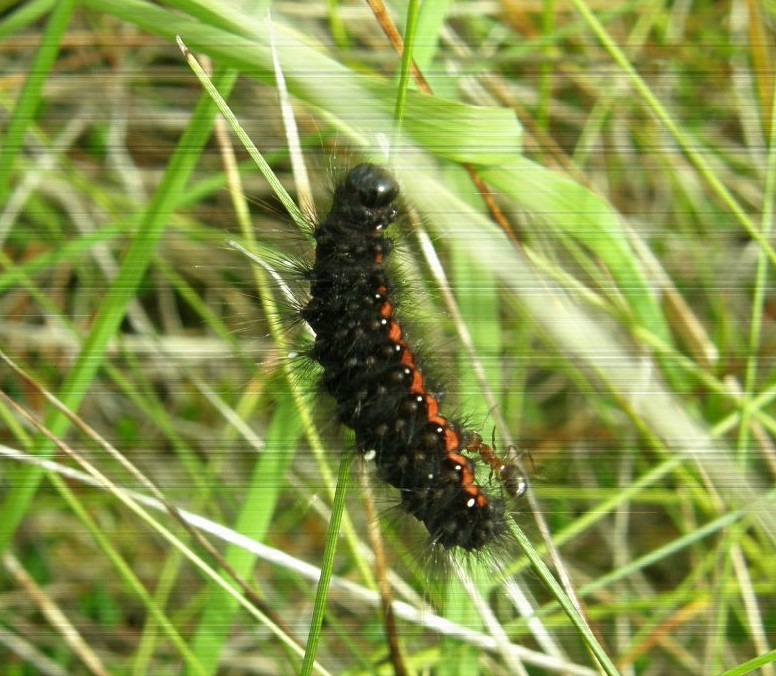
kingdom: Animalia
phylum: Arthropoda
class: Insecta
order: Lepidoptera
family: Noctuidae
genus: Acronicta
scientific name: Acronicta menyanthidis
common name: Hedemose-pelsugle
